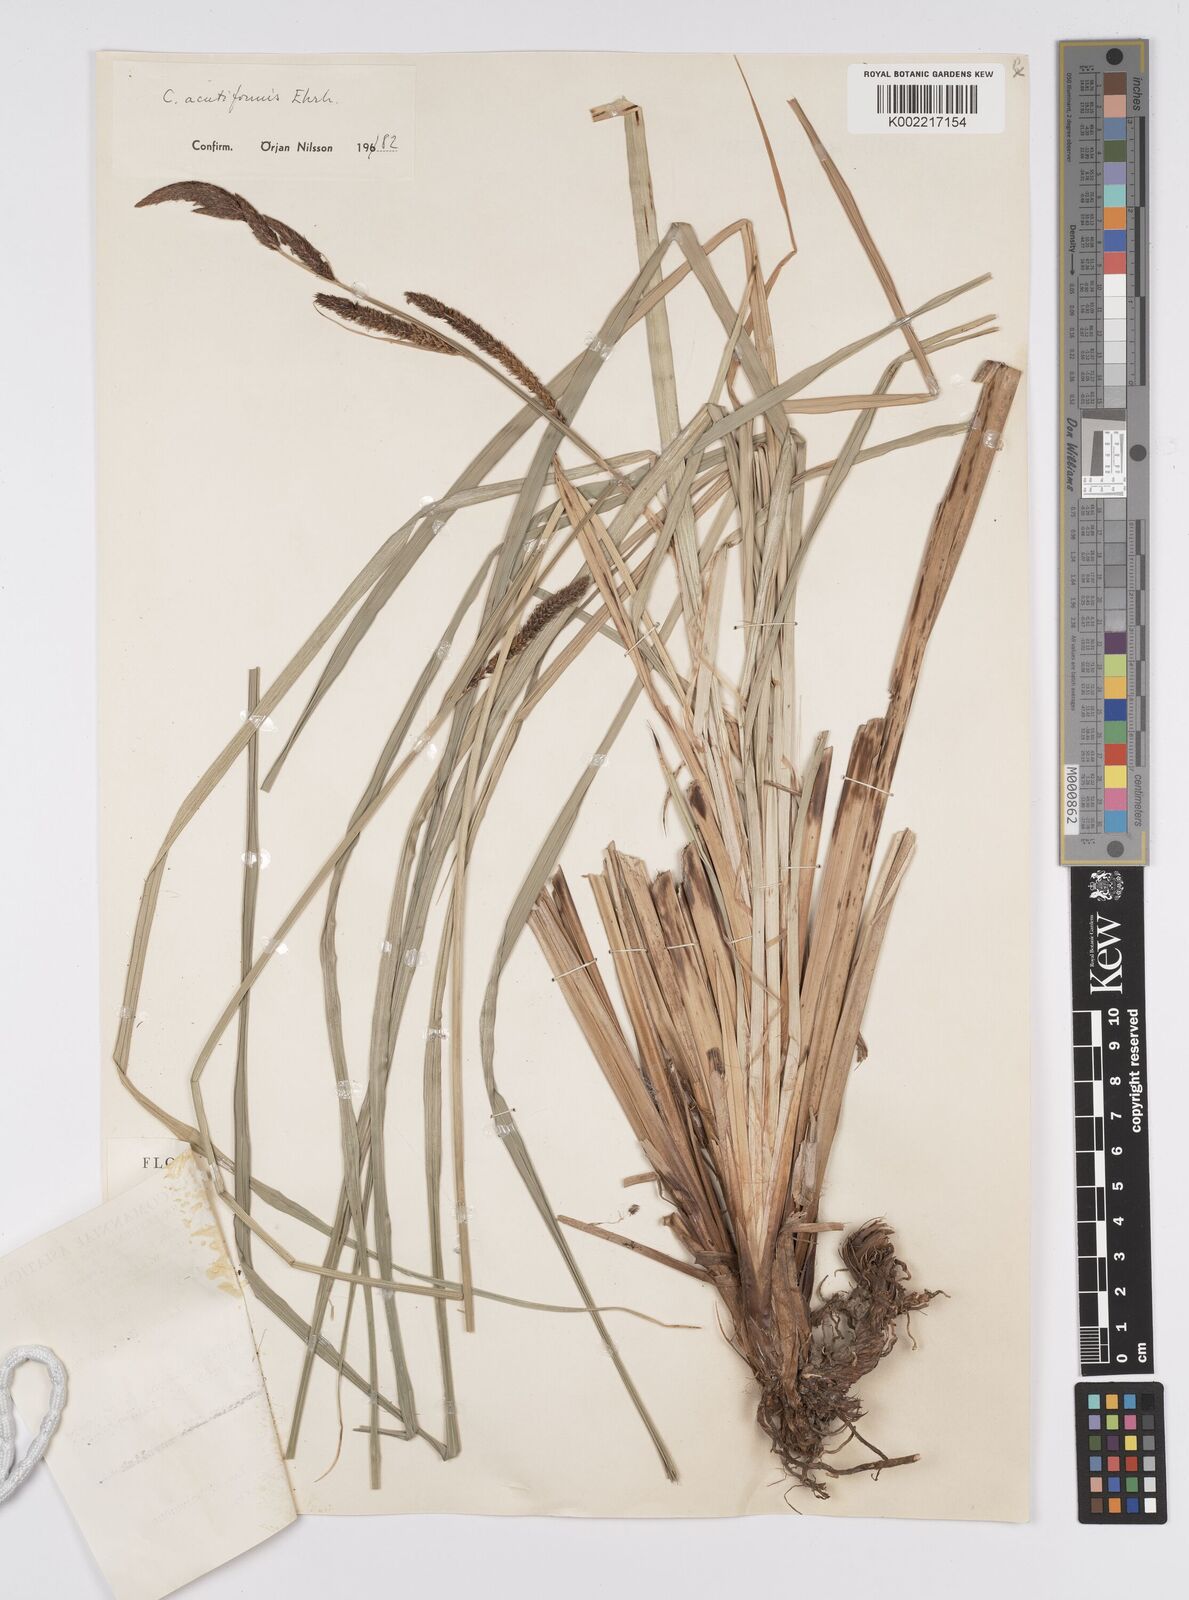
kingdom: Plantae
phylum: Tracheophyta
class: Liliopsida
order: Poales
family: Cyperaceae
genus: Carex
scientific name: Carex acutiformis
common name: Lesser pond-sedge
